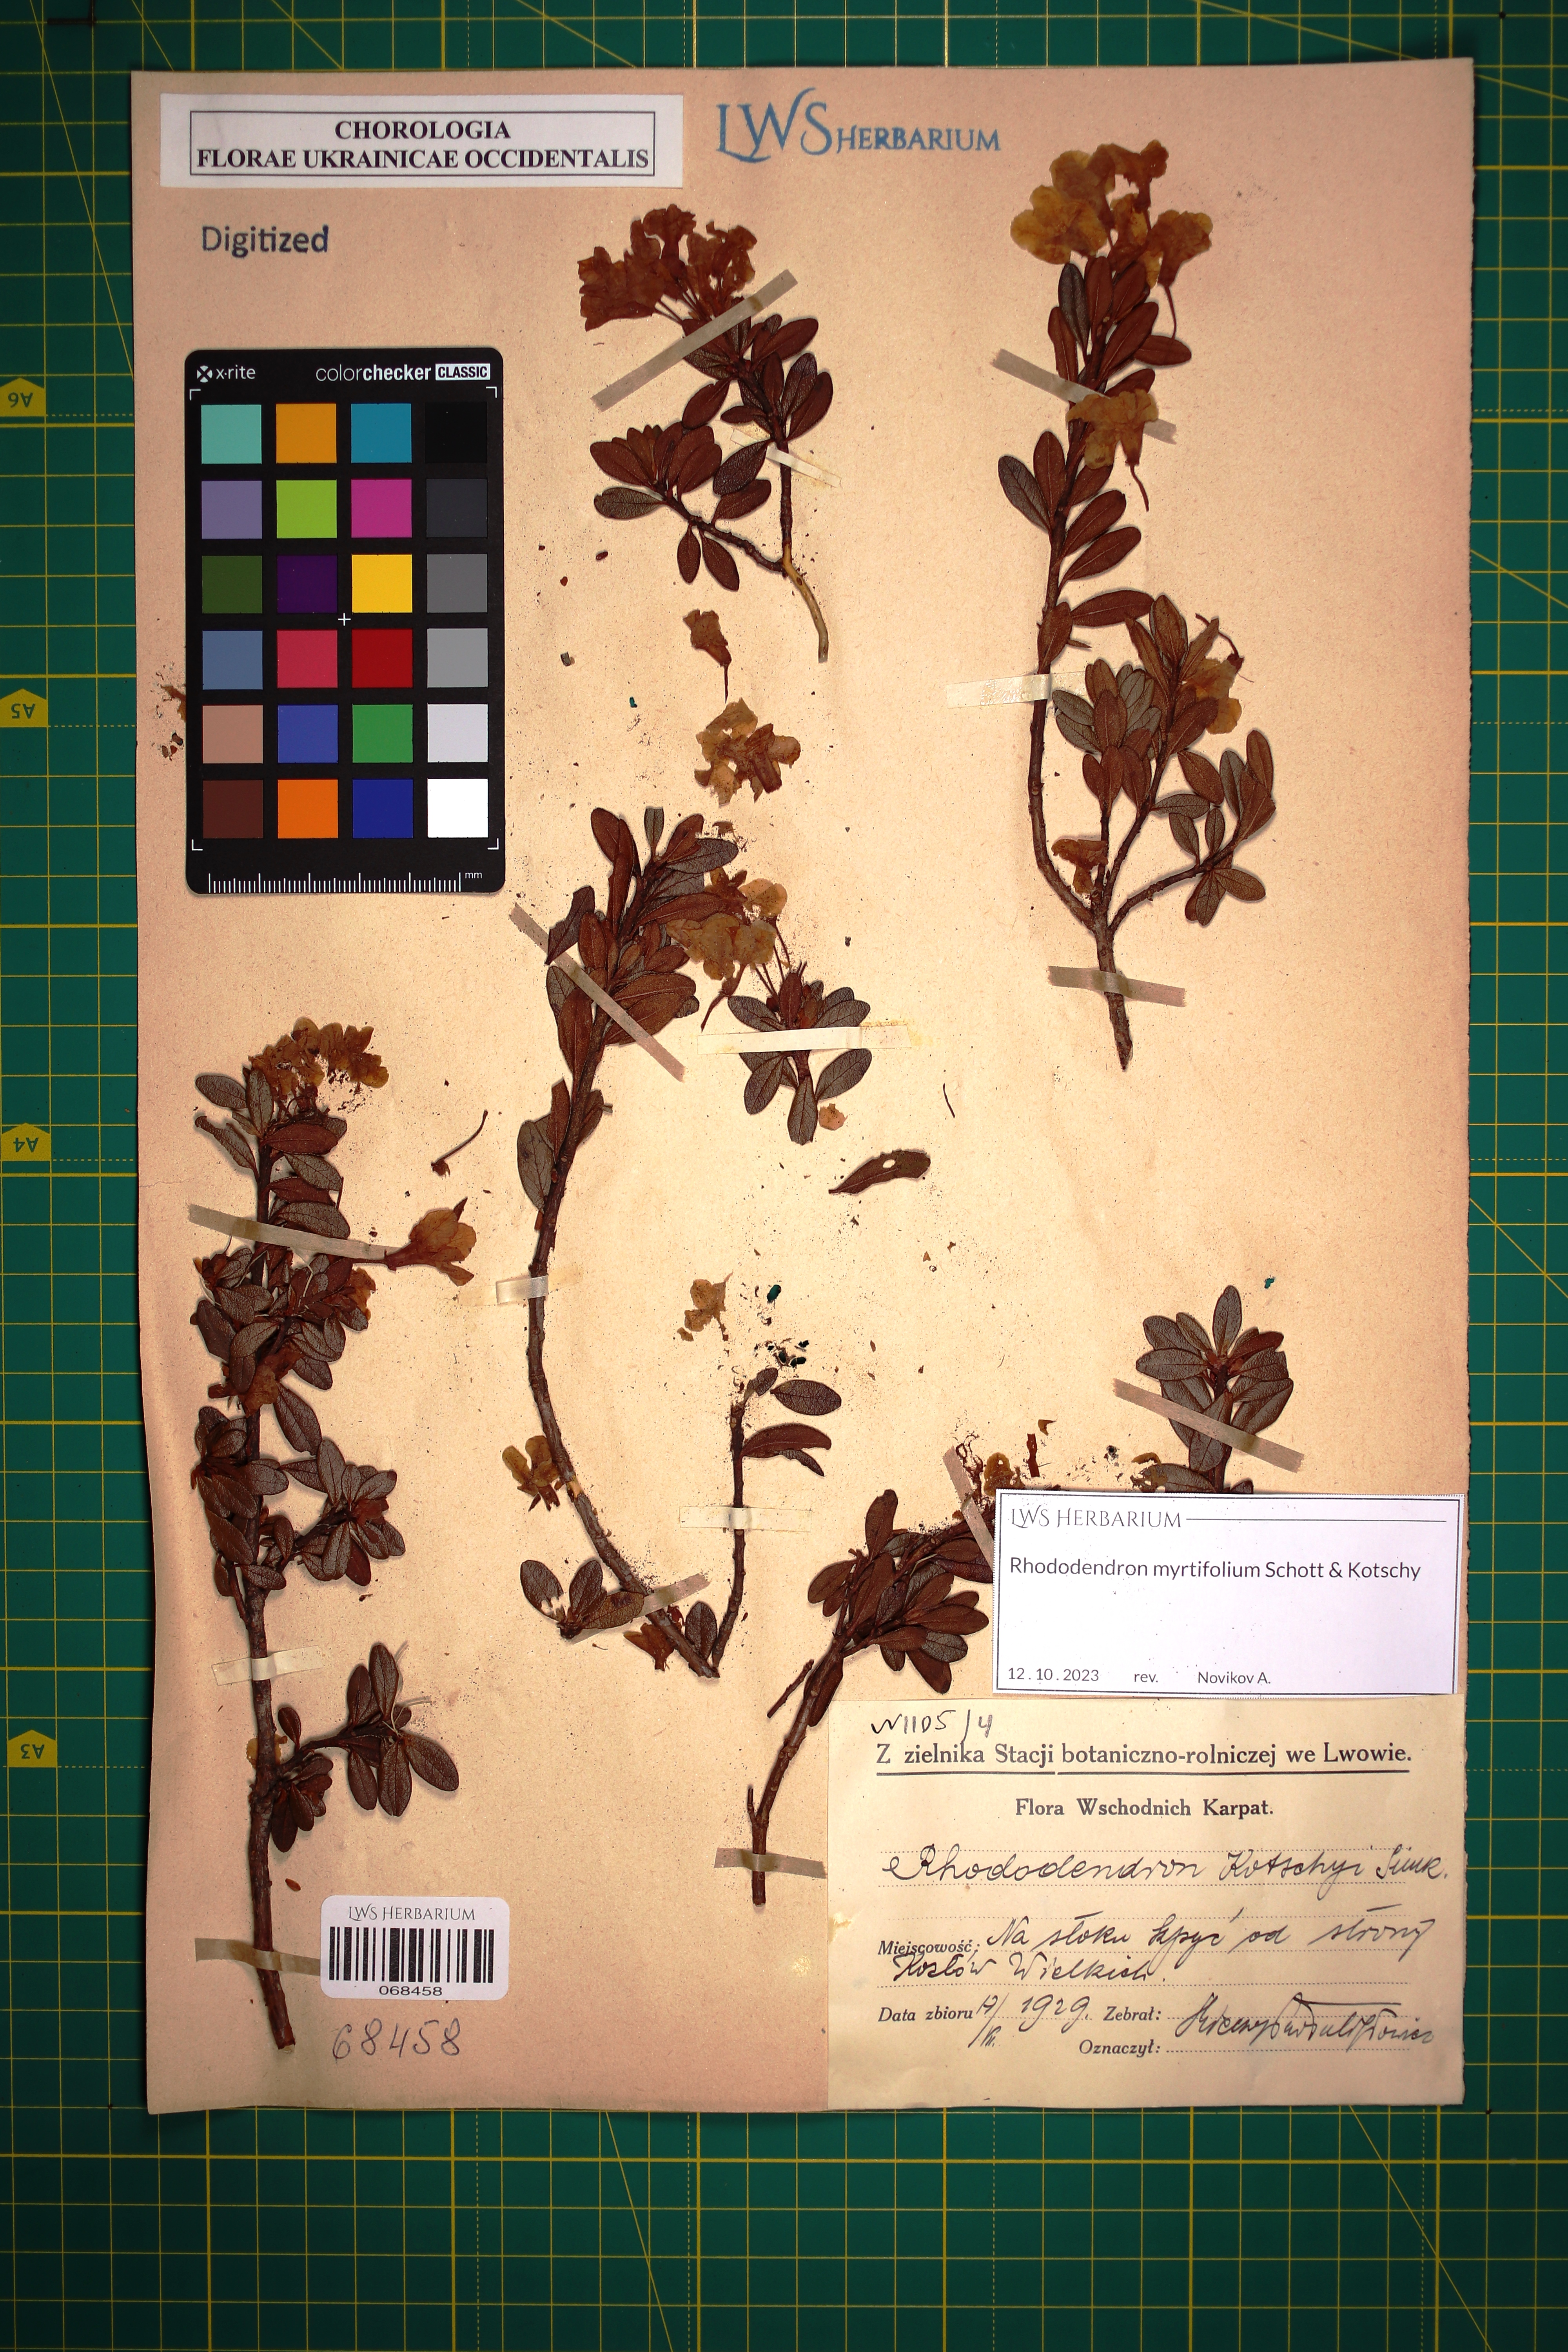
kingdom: Plantae
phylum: Tracheophyta
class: Magnoliopsida
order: Ericales
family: Ericaceae
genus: Rhododendron
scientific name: Rhododendron kotschyi
